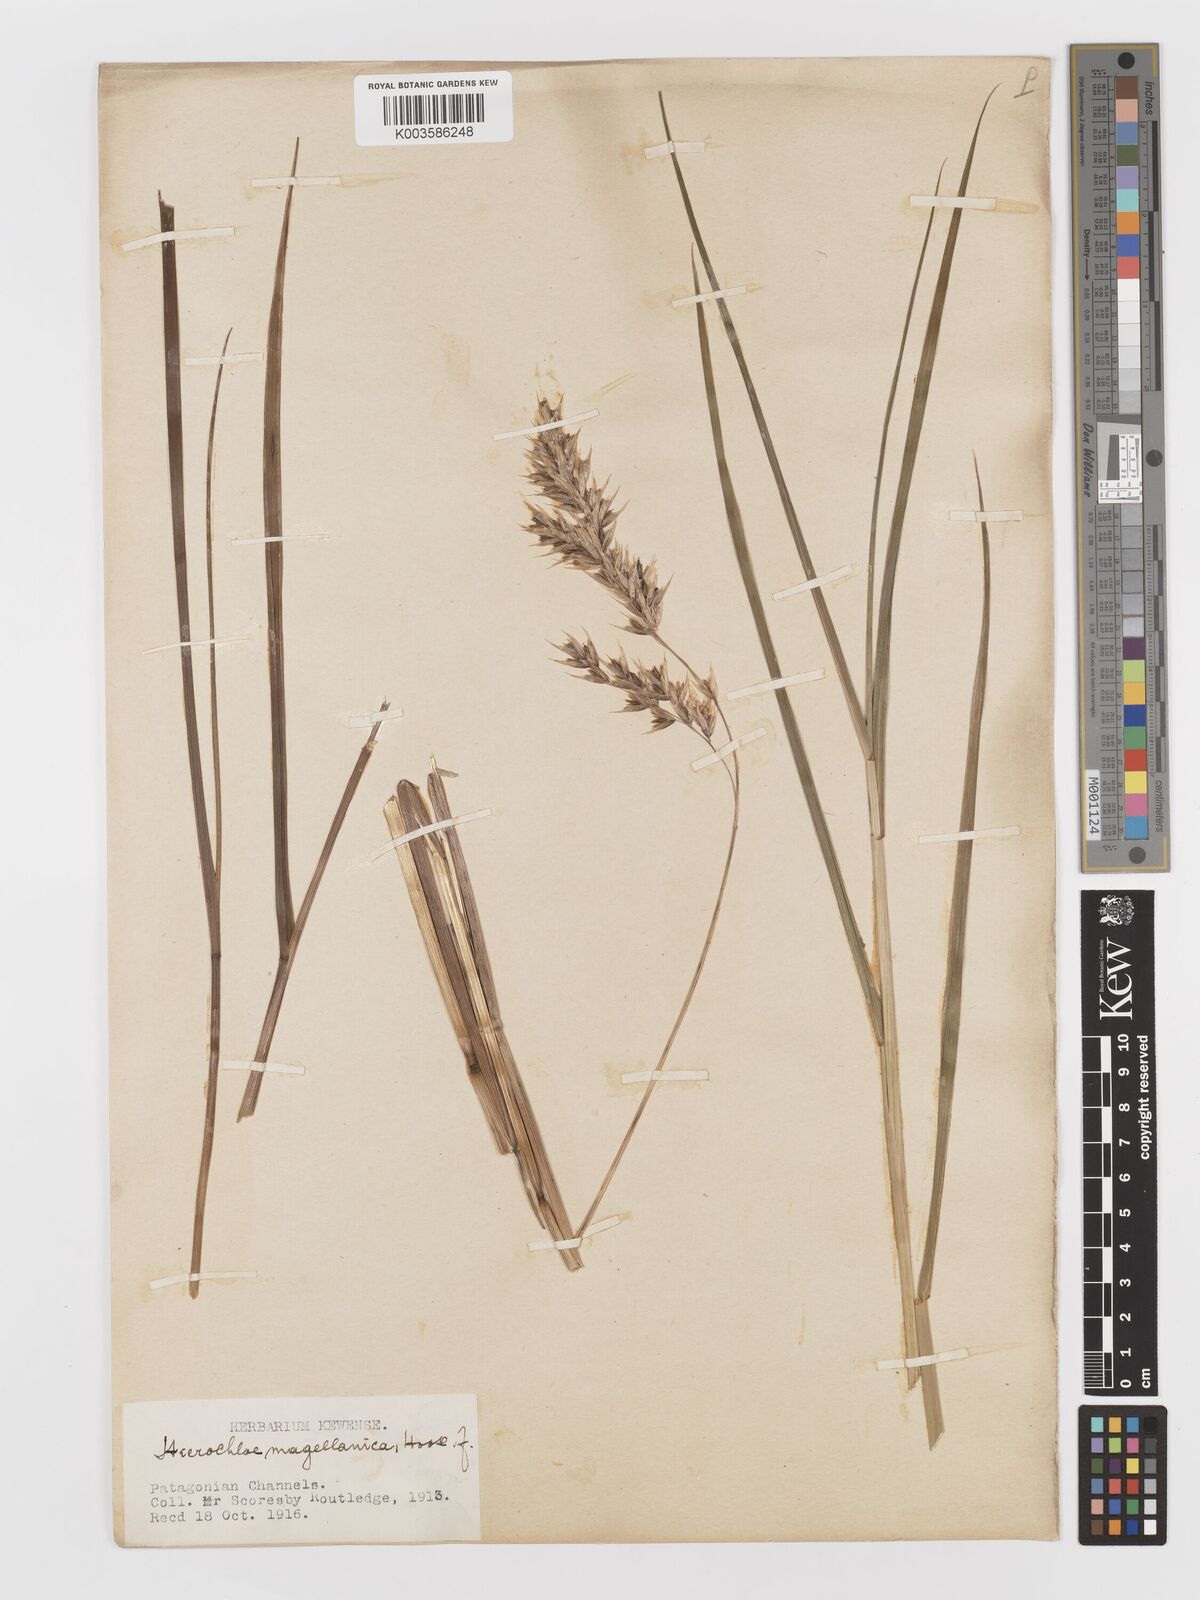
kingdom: Plantae
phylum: Tracheophyta
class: Liliopsida
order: Poales
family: Poaceae
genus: Anthoxanthum
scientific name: Anthoxanthum redolens
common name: Sweet holy grass
